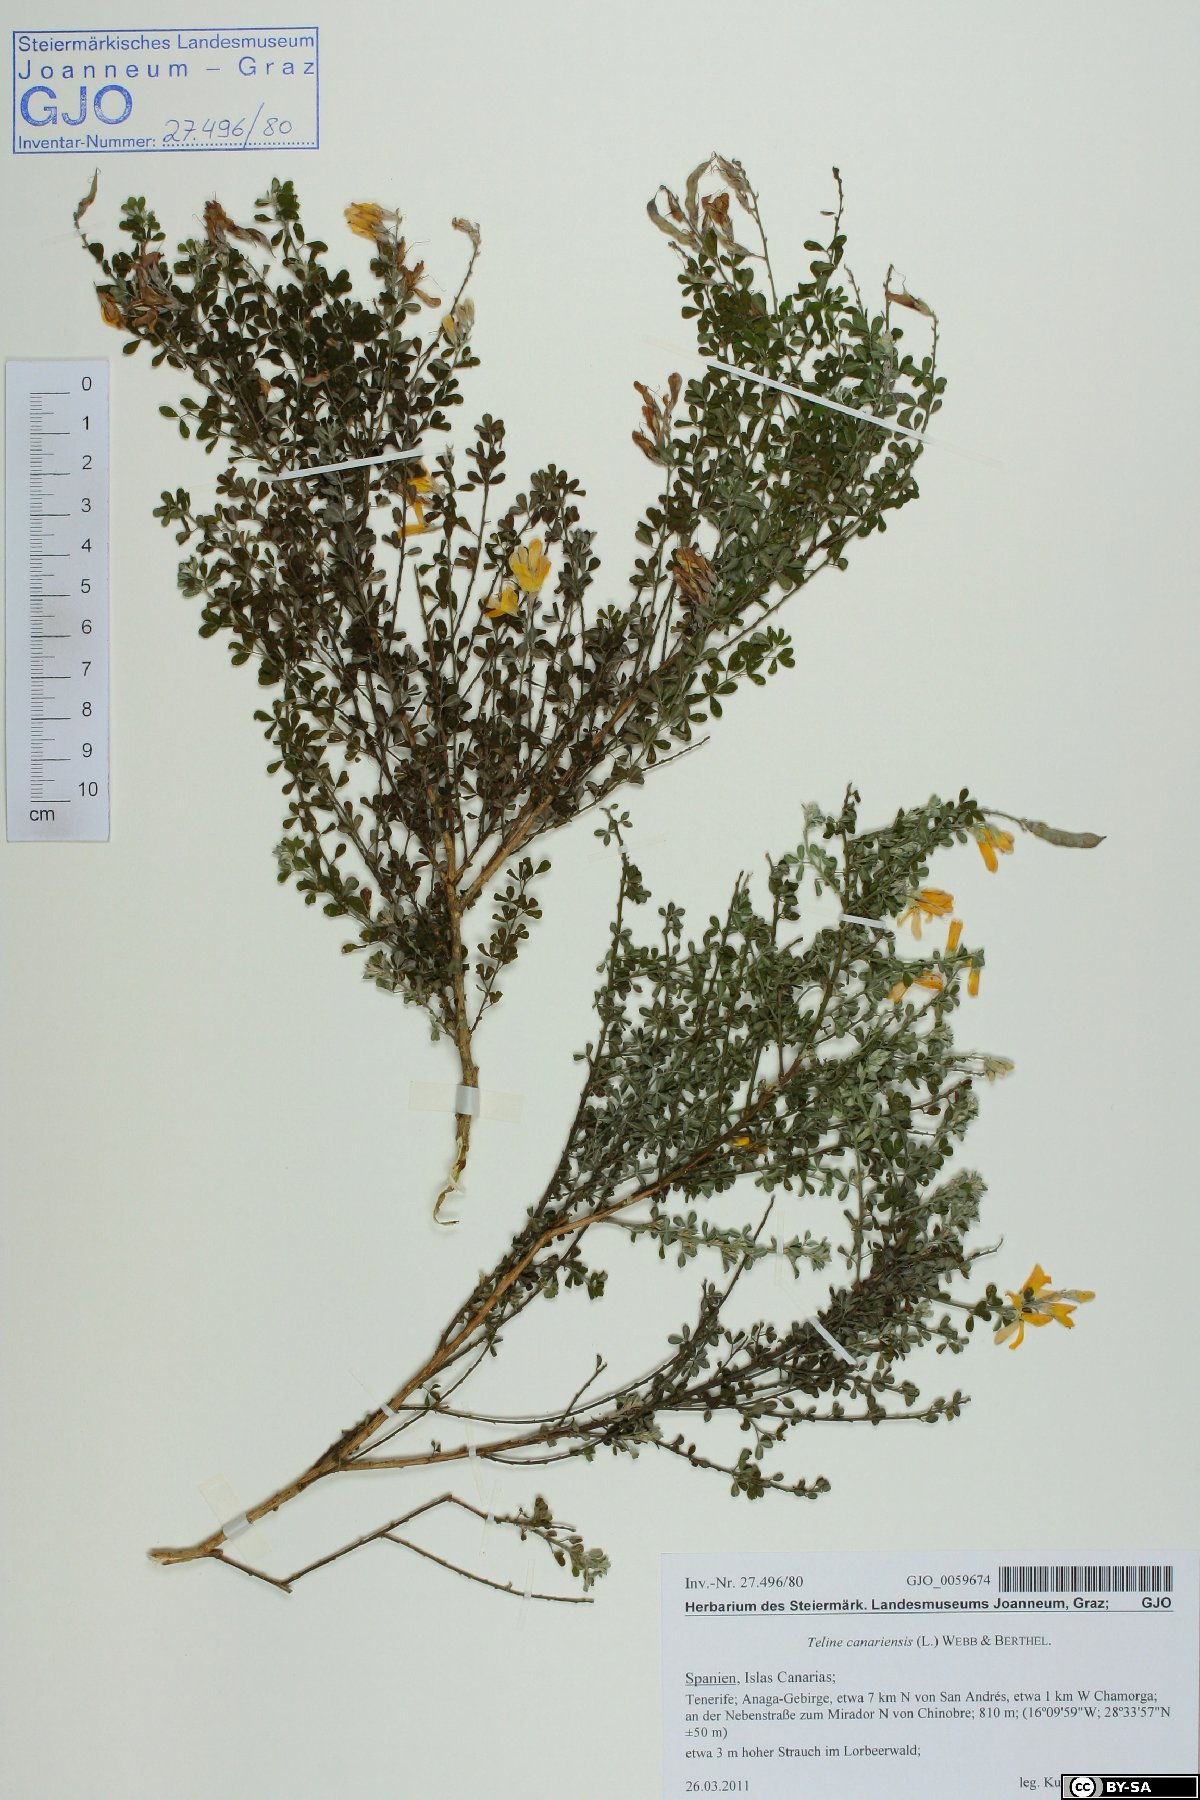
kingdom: Plantae
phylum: Tracheophyta
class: Magnoliopsida
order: Fabales
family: Fabaceae
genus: Genista
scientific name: Genista canariensis
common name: Canary broom
